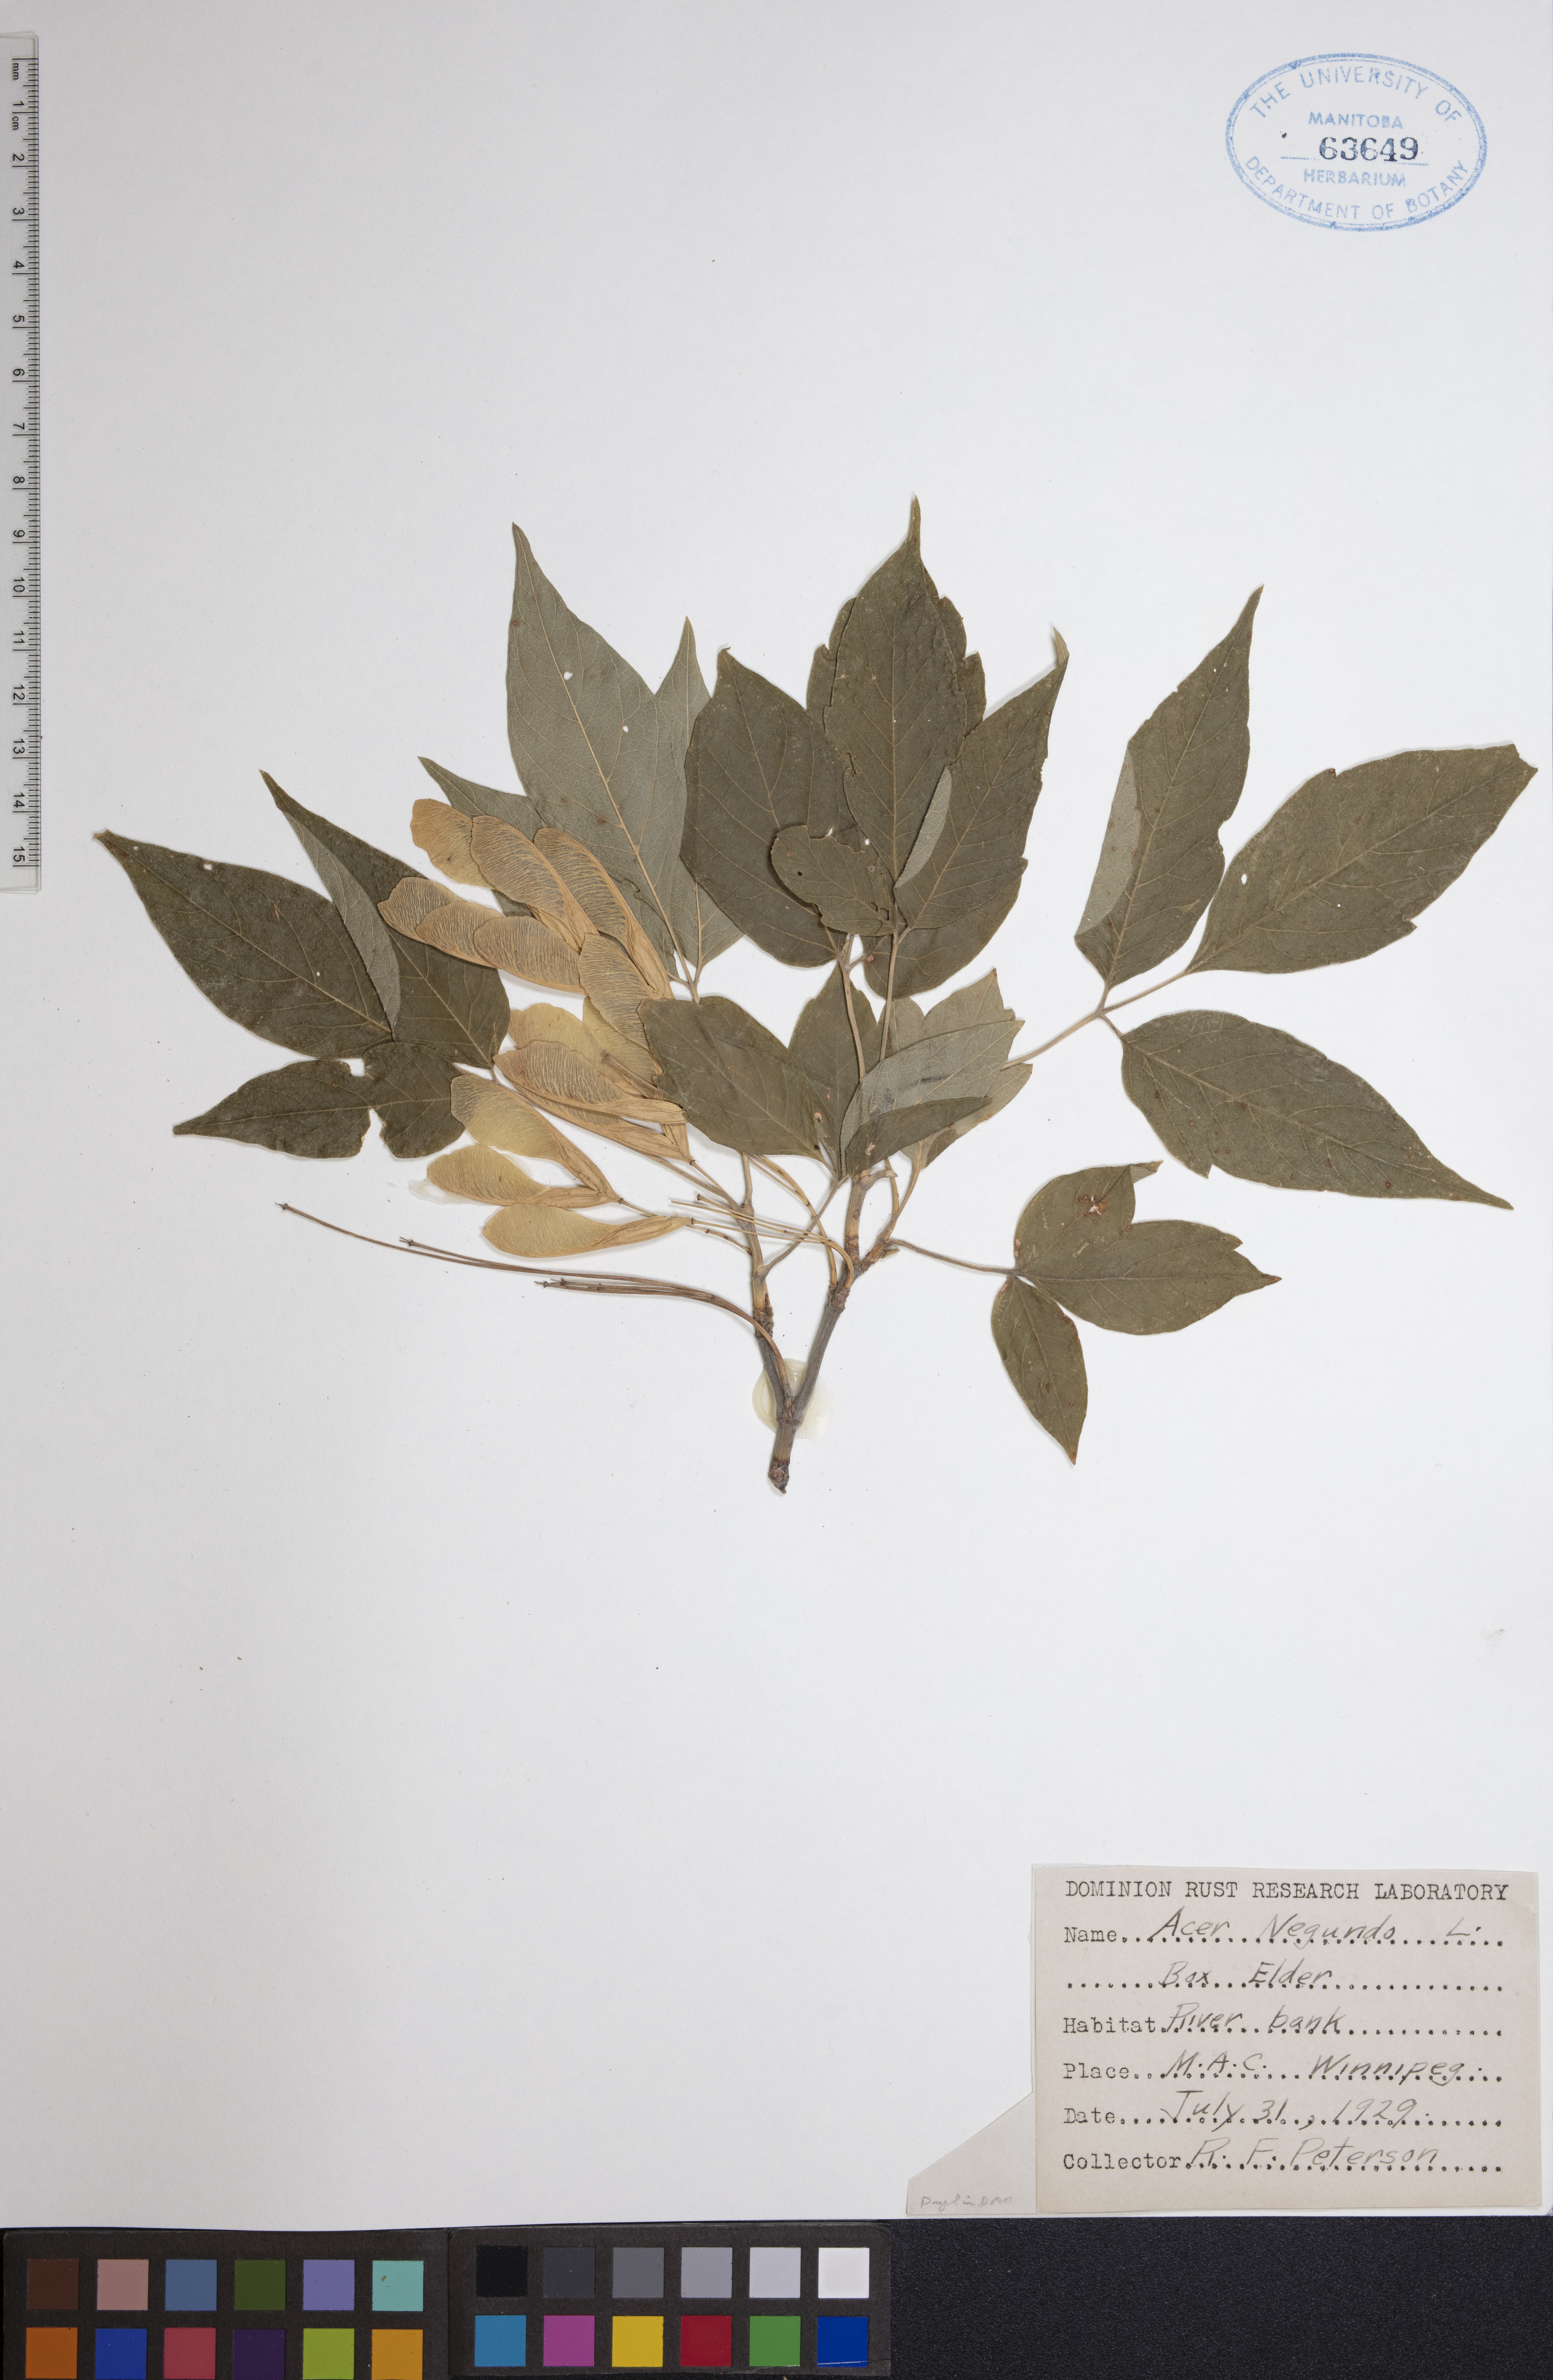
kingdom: Plantae
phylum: Tracheophyta
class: Magnoliopsida
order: Sapindales
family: Sapindaceae
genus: Acer
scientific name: Acer negundo
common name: Ashleaf maple
